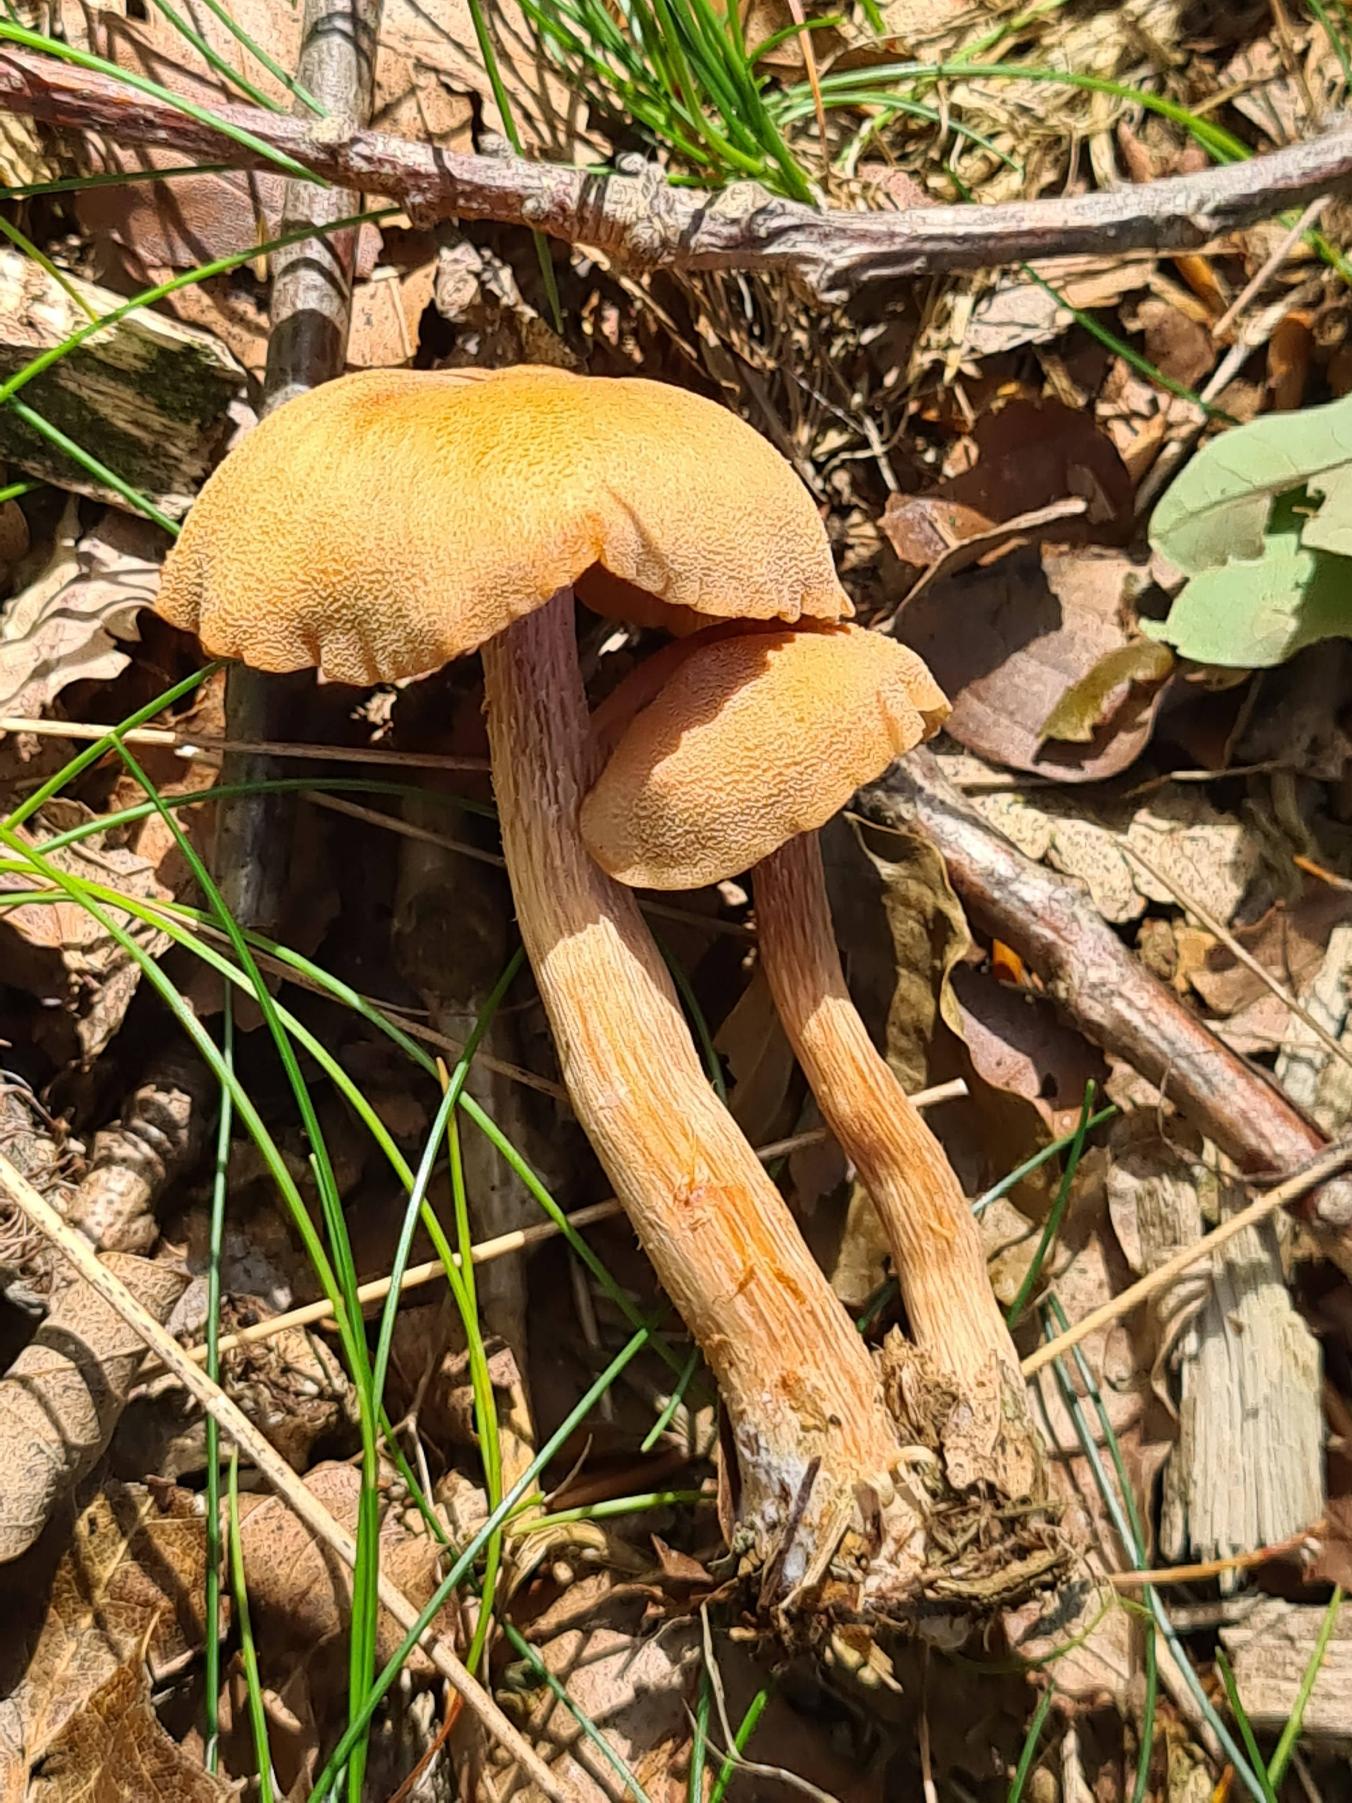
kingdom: Fungi
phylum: Basidiomycota
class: Agaricomycetes
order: Agaricales
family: Hydnangiaceae
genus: Laccaria
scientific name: Laccaria bicolor
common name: Tvefarvet ametysthat
